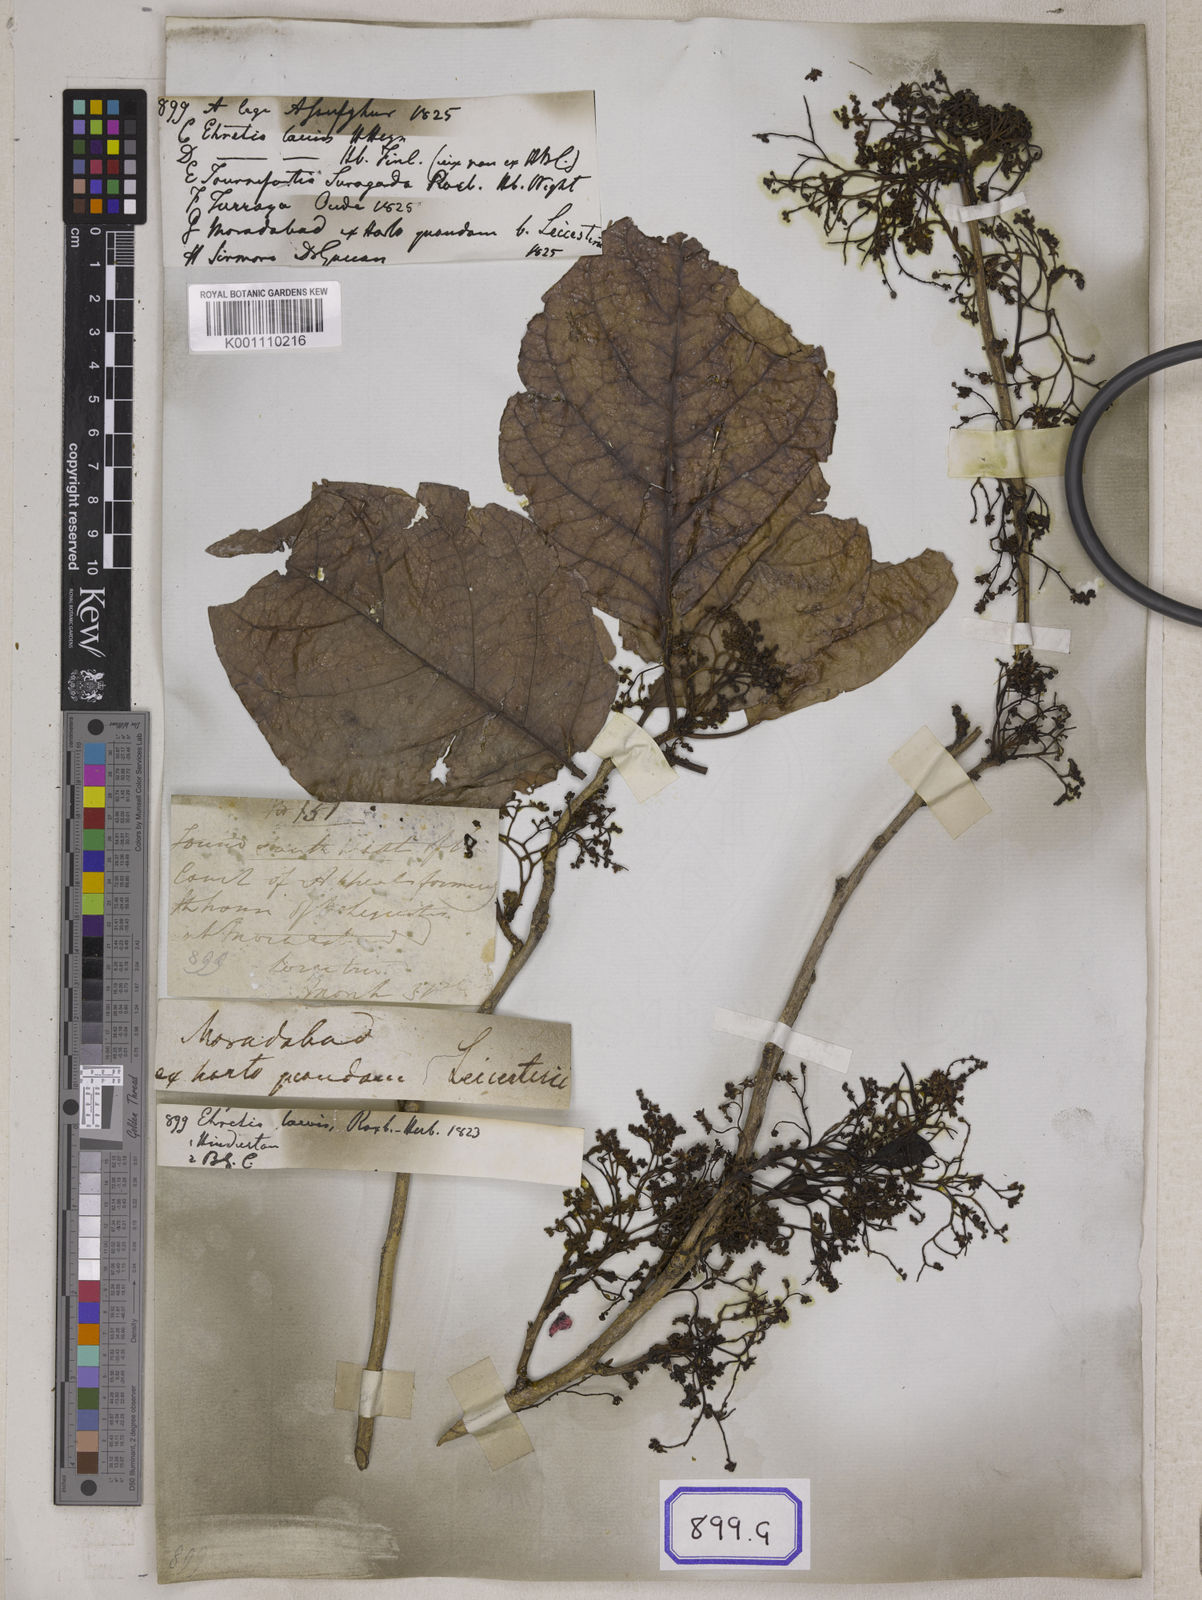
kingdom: Plantae
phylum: Tracheophyta
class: Magnoliopsida
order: Boraginales
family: Ehretiaceae
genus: Ehretia
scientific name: Ehretia laevis
